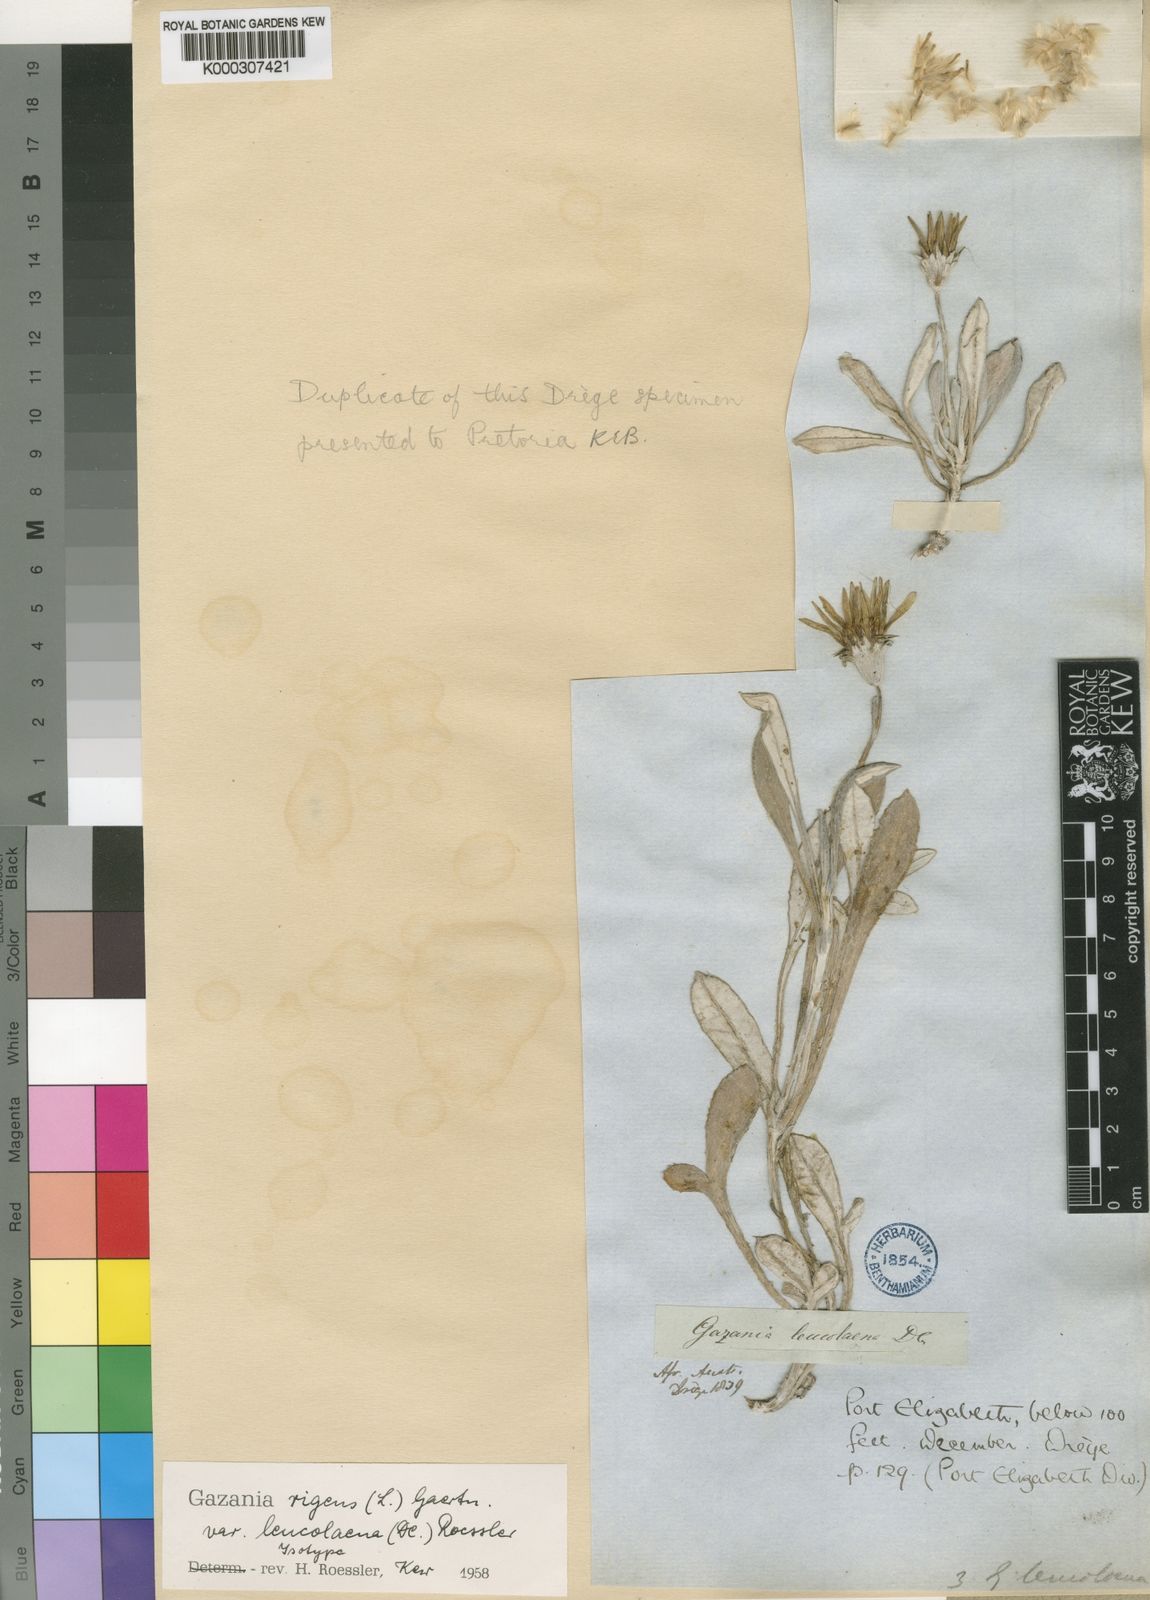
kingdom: Plantae
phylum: Tracheophyta
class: Magnoliopsida
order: Asterales
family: Asteraceae
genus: Gazania
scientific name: Gazania rigens
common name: Treasureflower
